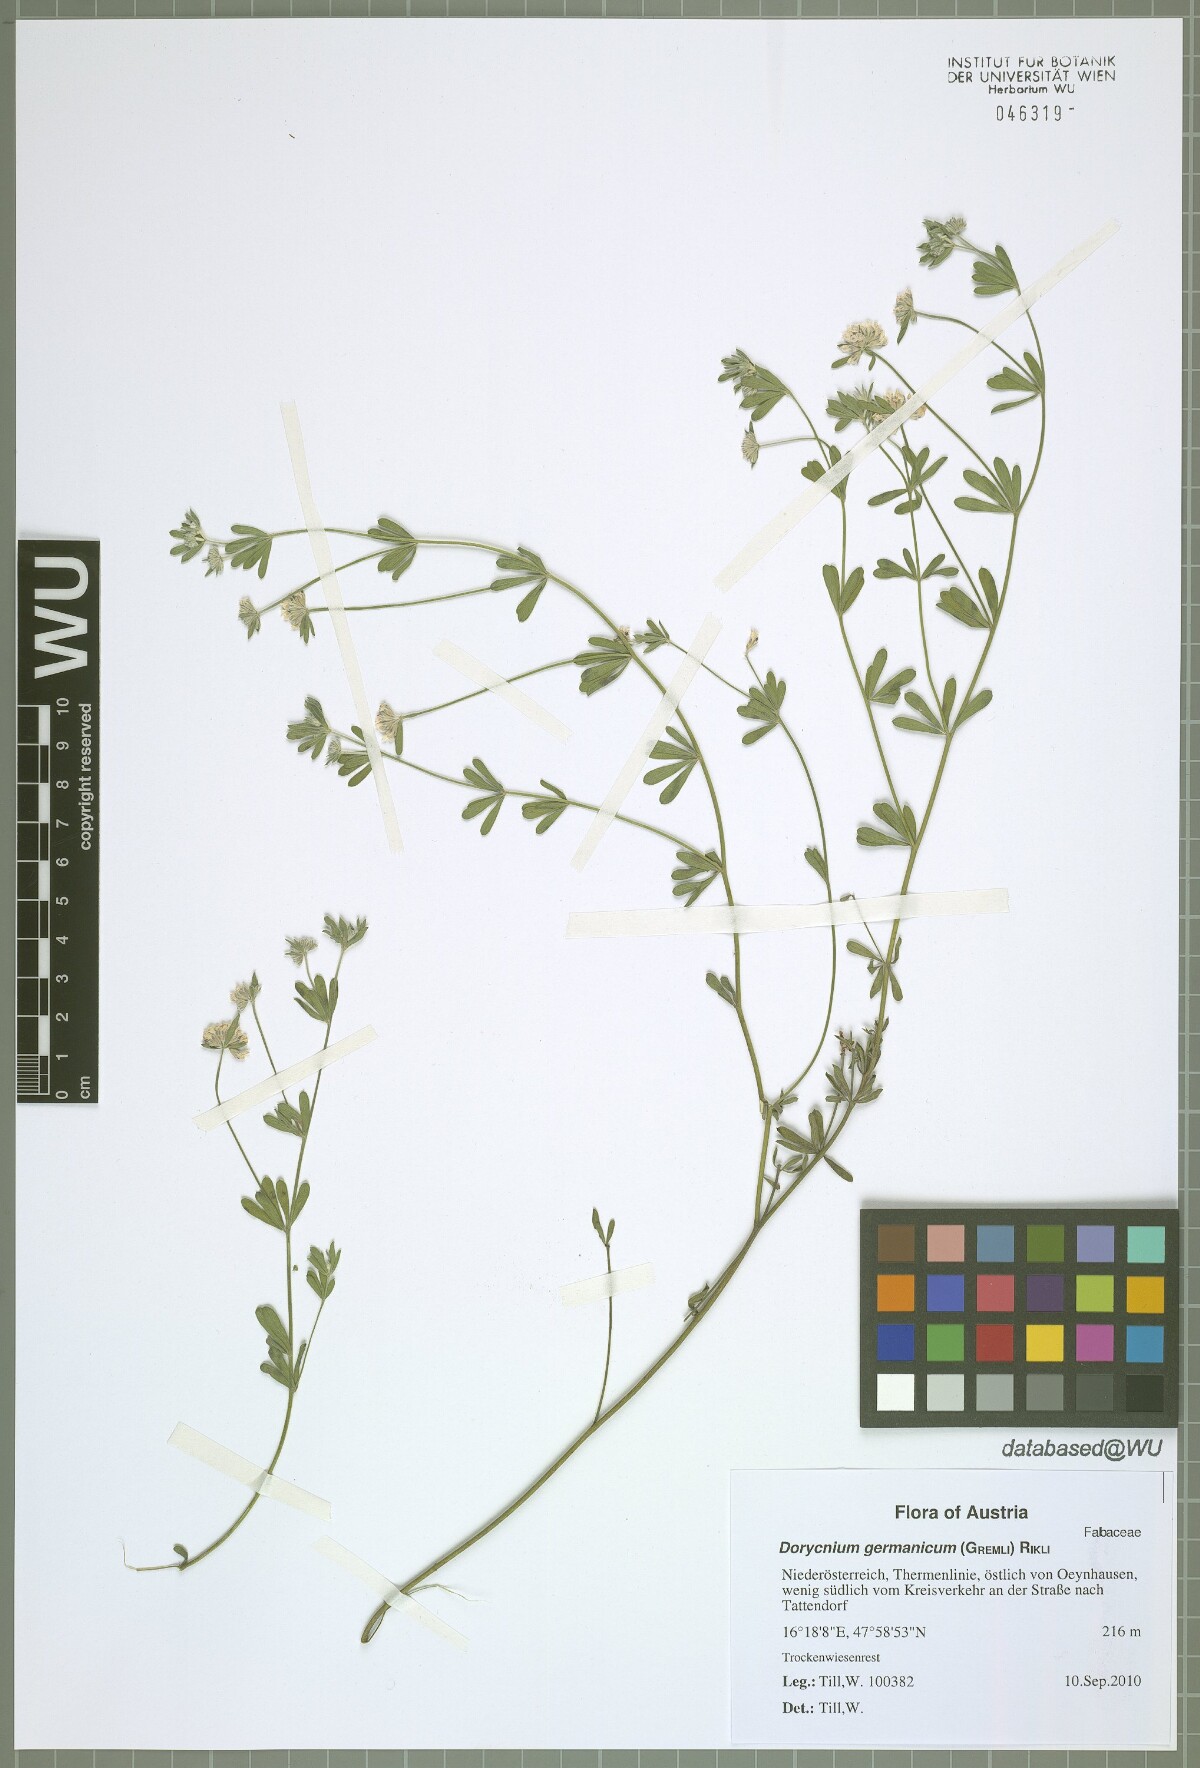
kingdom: Plantae
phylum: Tracheophyta
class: Magnoliopsida
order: Fabales
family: Fabaceae
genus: Lotus
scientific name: Lotus germanicus
